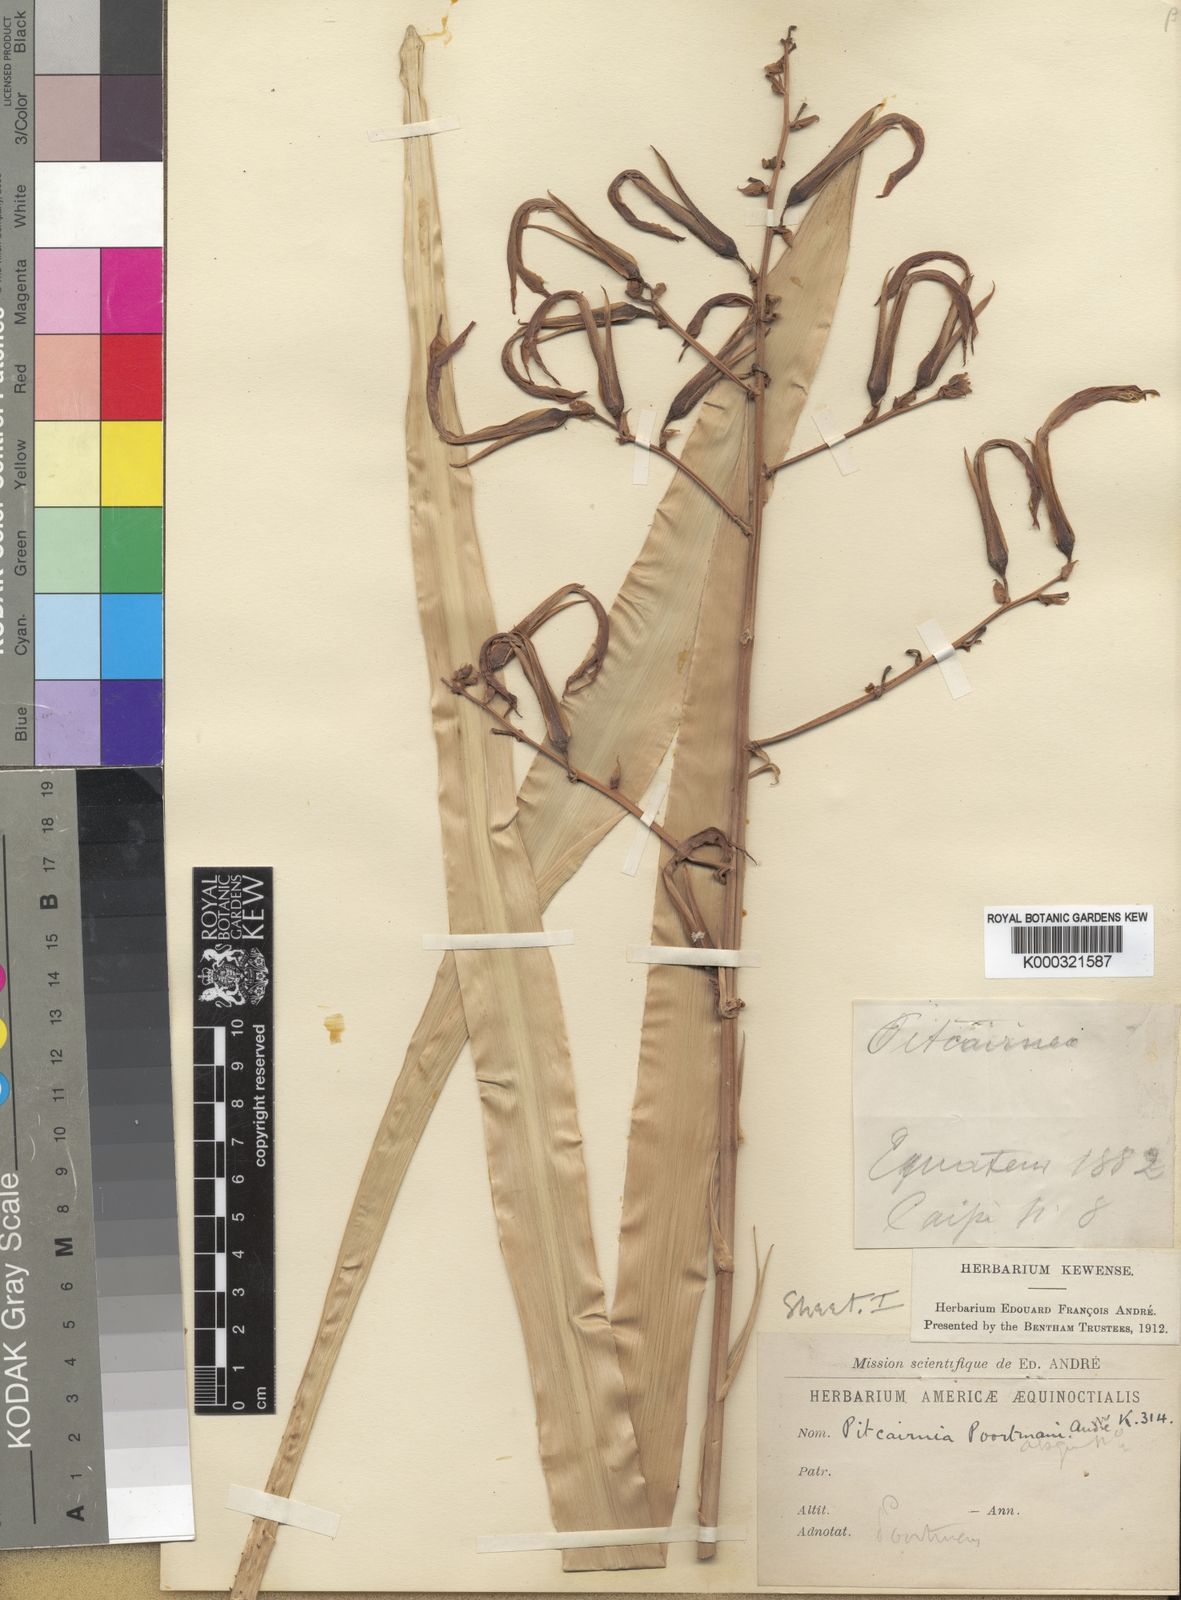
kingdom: Plantae
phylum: Tracheophyta
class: Liliopsida
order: Poales
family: Bromeliaceae
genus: Pitcairnia
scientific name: Pitcairnia
